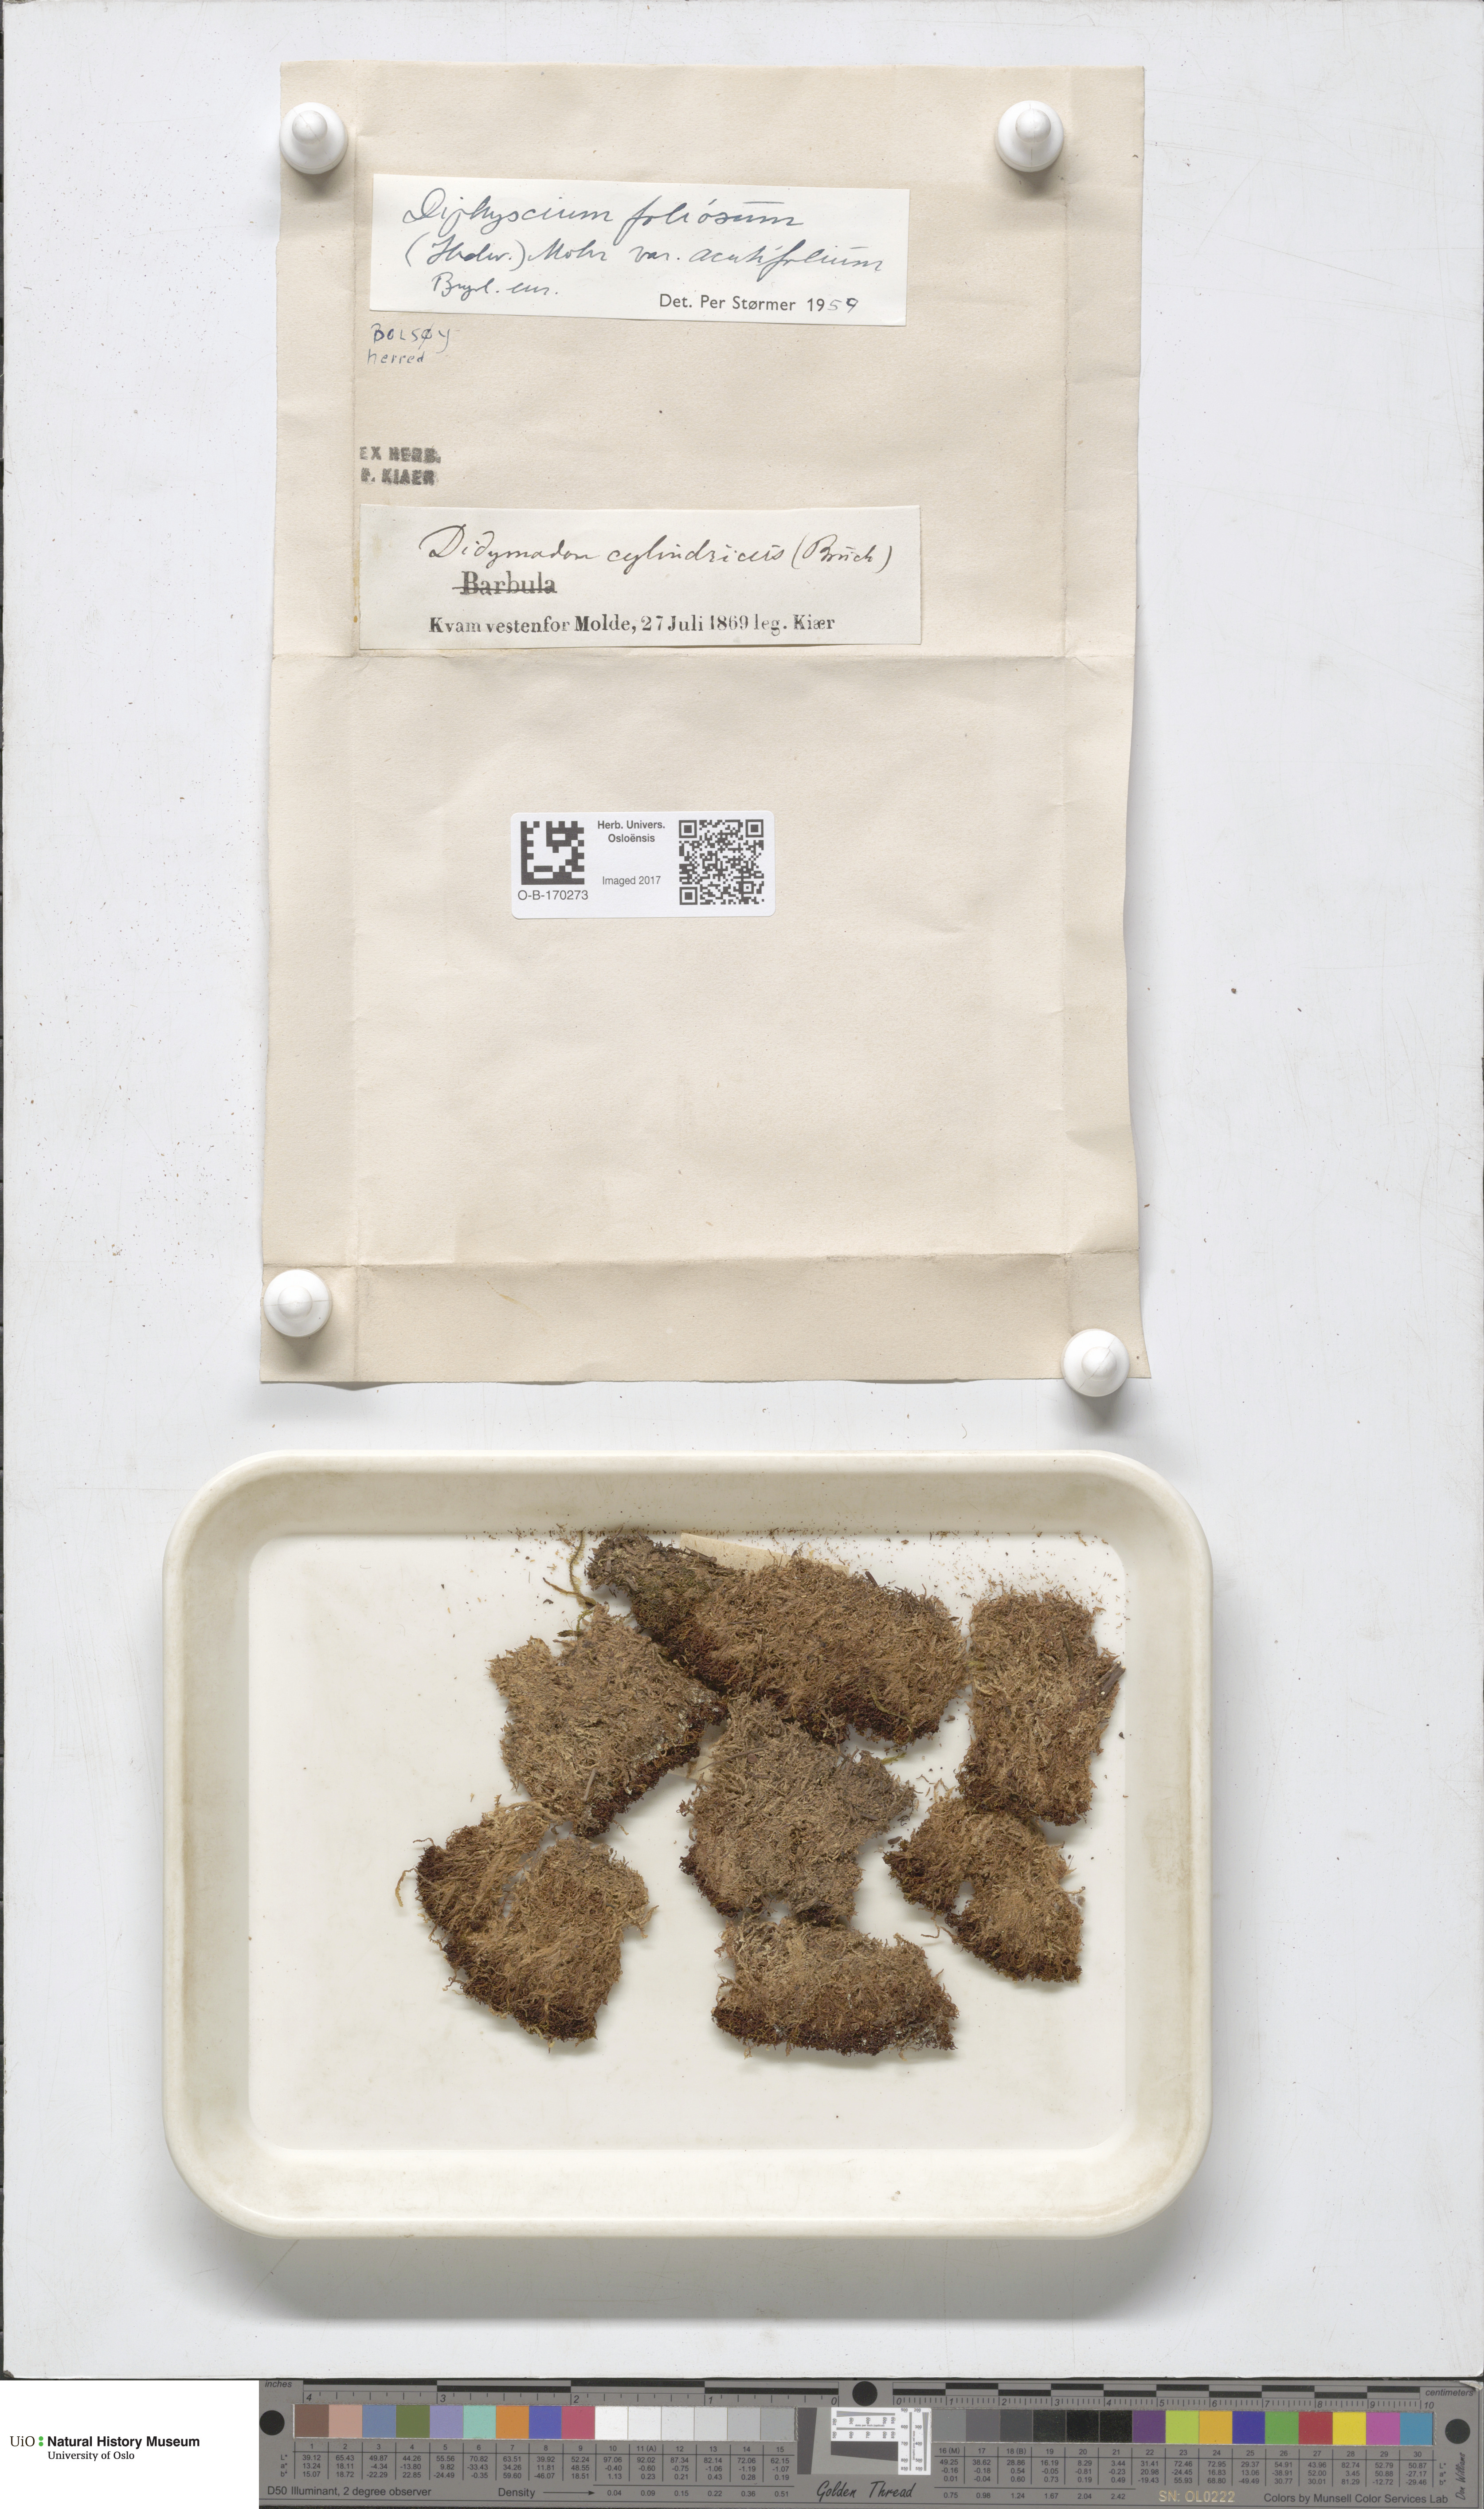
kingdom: Plantae
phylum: Bryophyta
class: Bryopsida
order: Diphysciales
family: Diphysciaceae
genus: Diphyscium
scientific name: Diphyscium foliosum
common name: Nut moss
